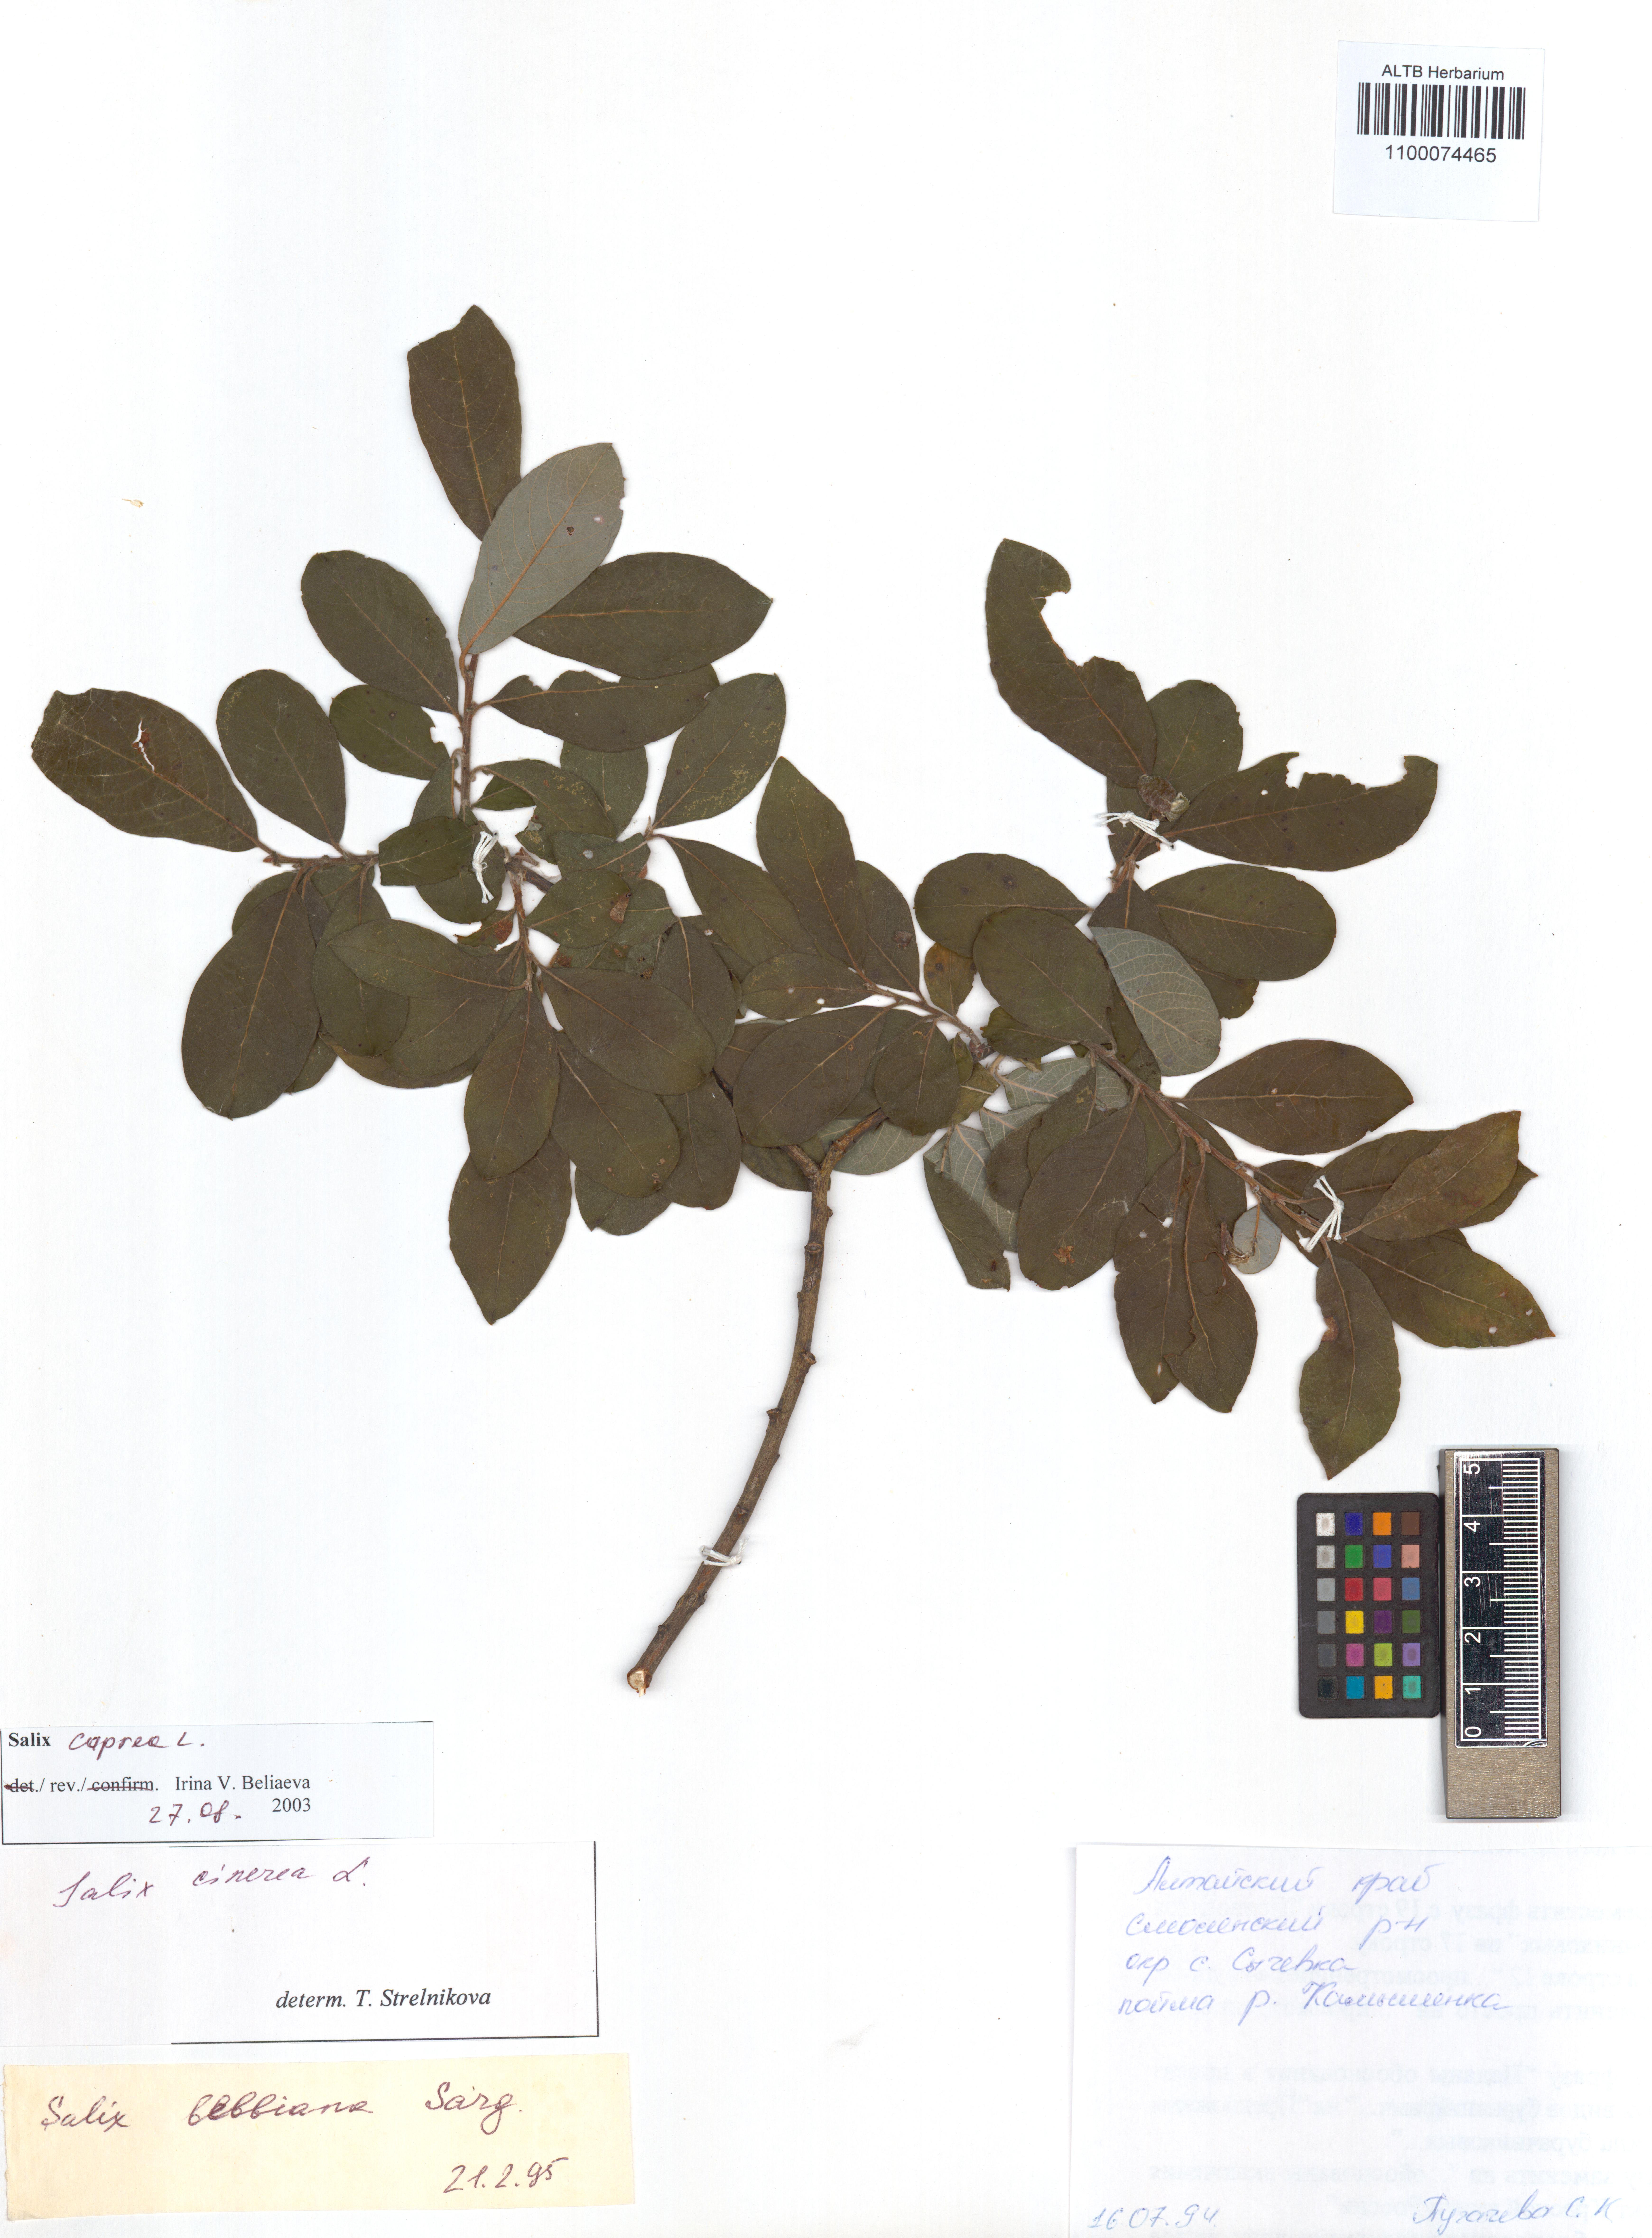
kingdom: Plantae
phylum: Tracheophyta
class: Magnoliopsida
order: Malpighiales
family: Salicaceae
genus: Salix
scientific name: Salix caprea
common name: Goat willow
